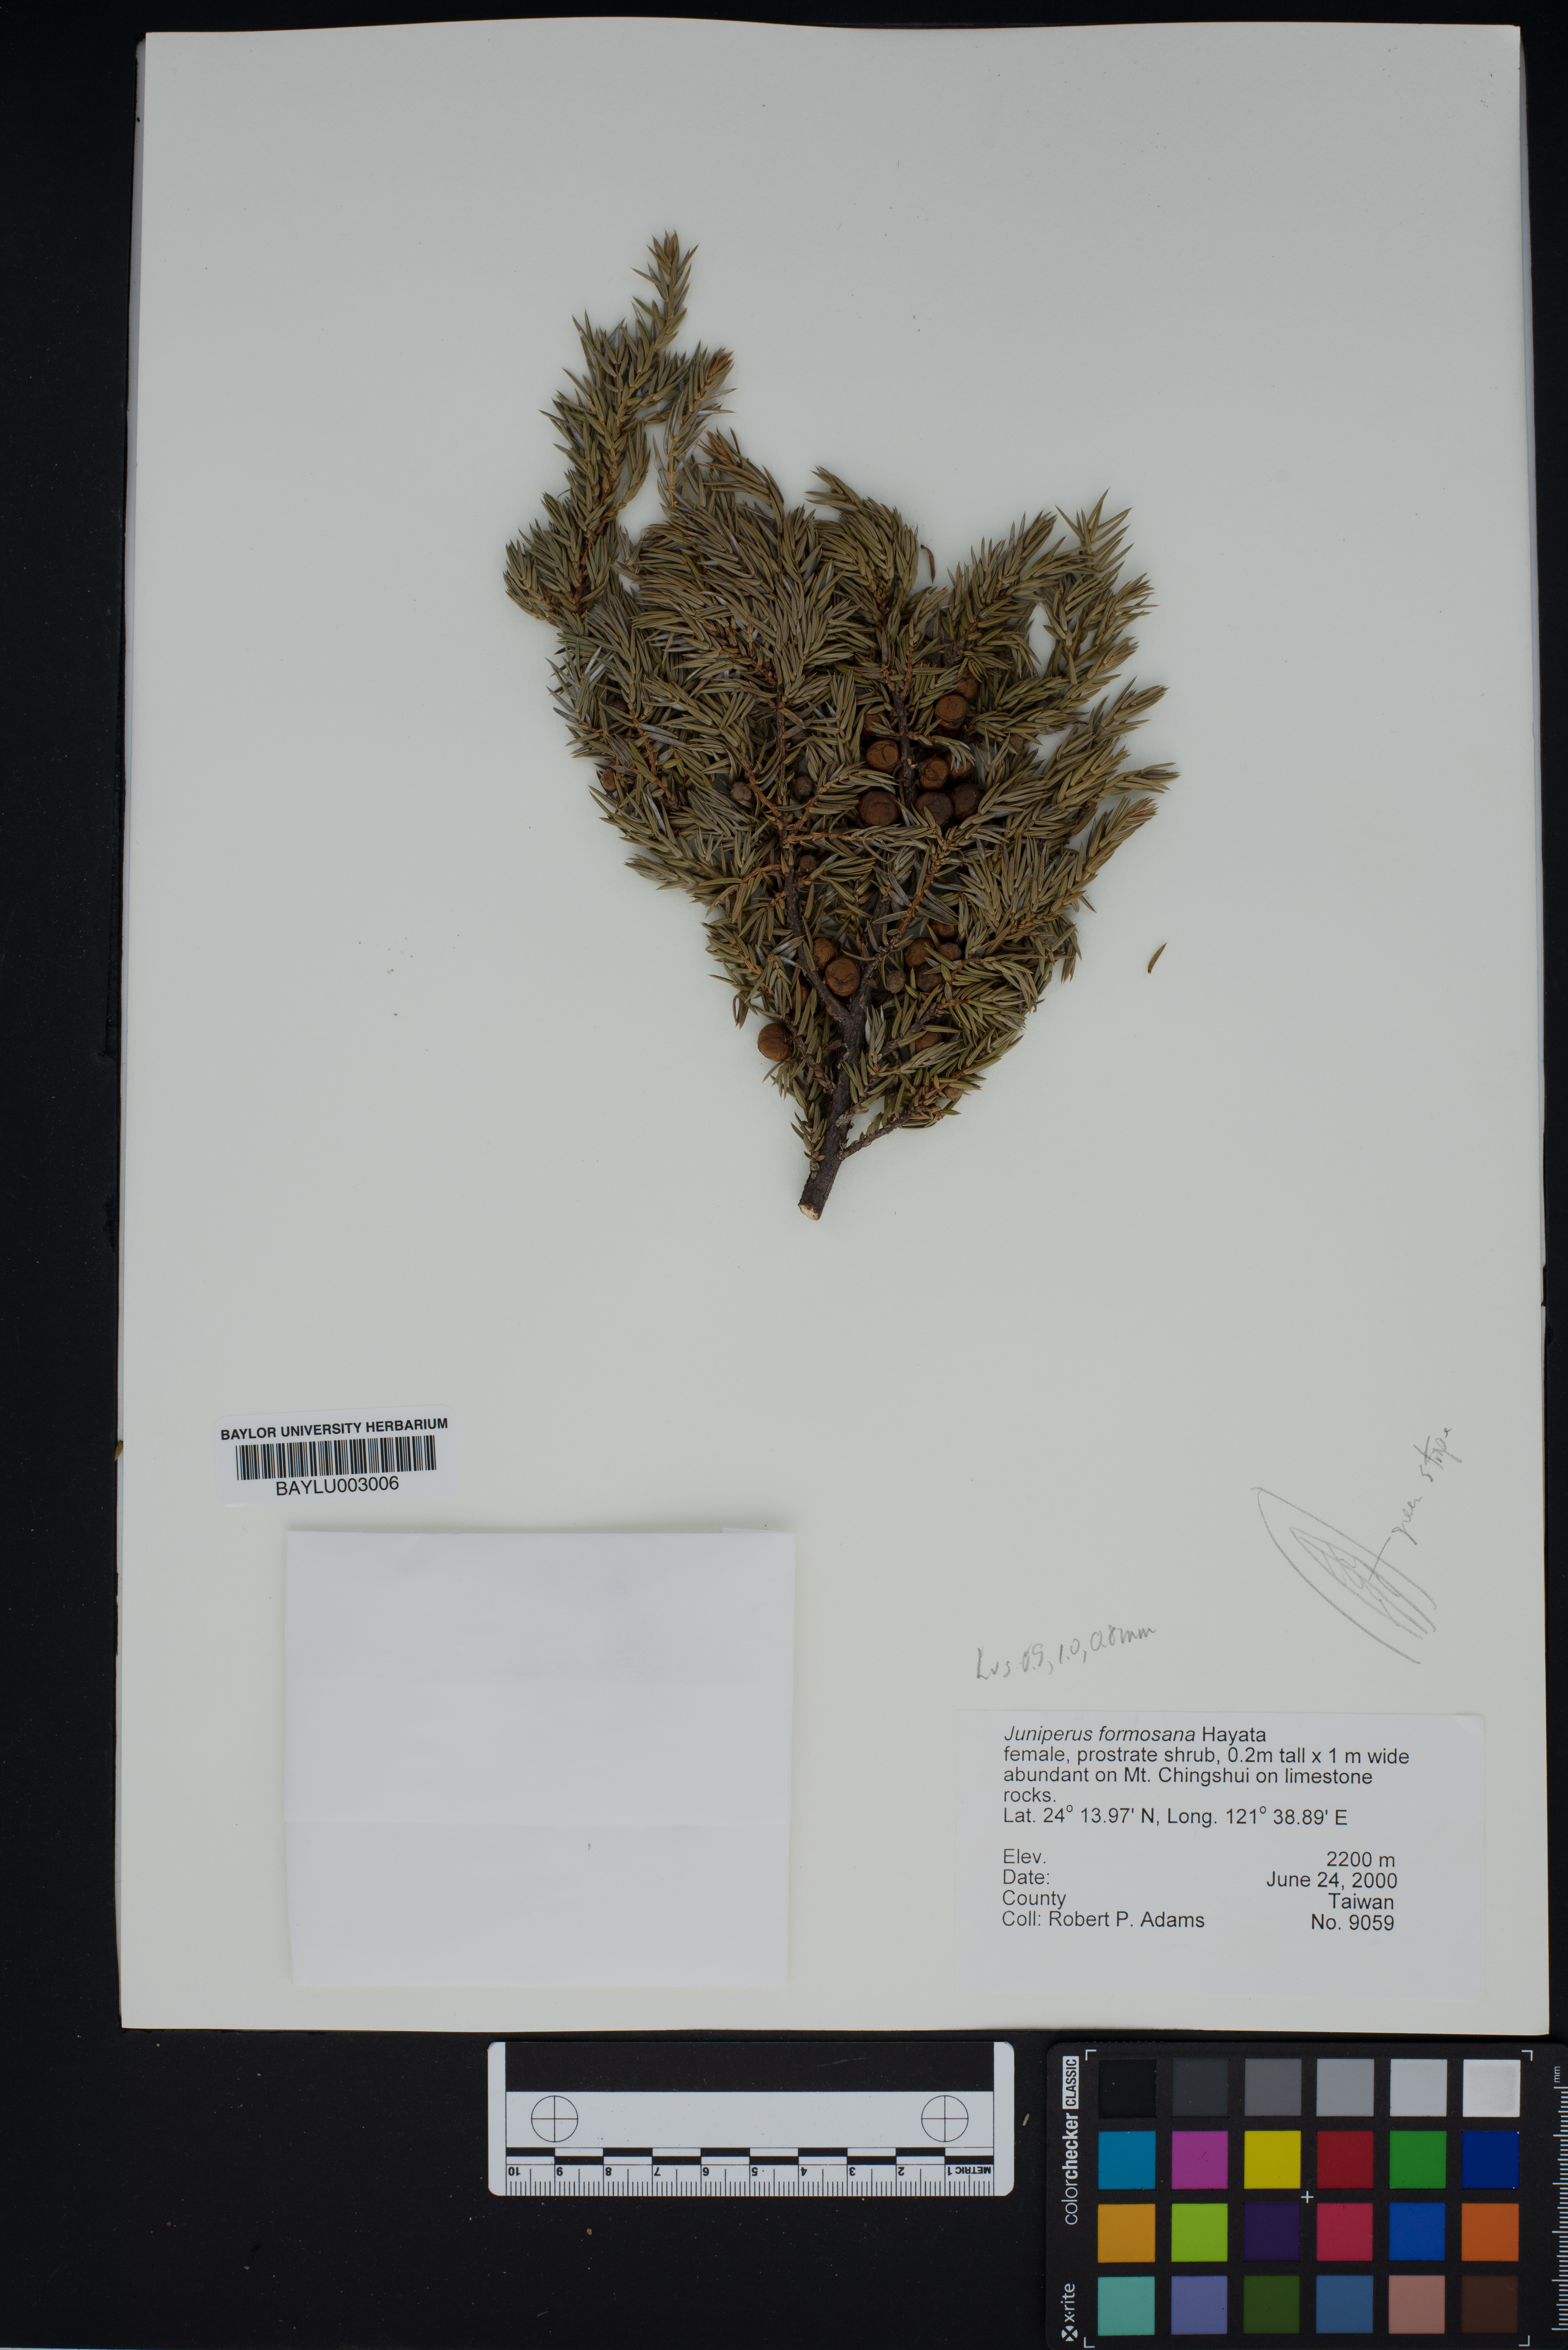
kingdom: Plantae
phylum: Tracheophyta
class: Pinopsida
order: Pinales
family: Cupressaceae
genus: Juniperus
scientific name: Juniperus formosana
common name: Formosan juniper
